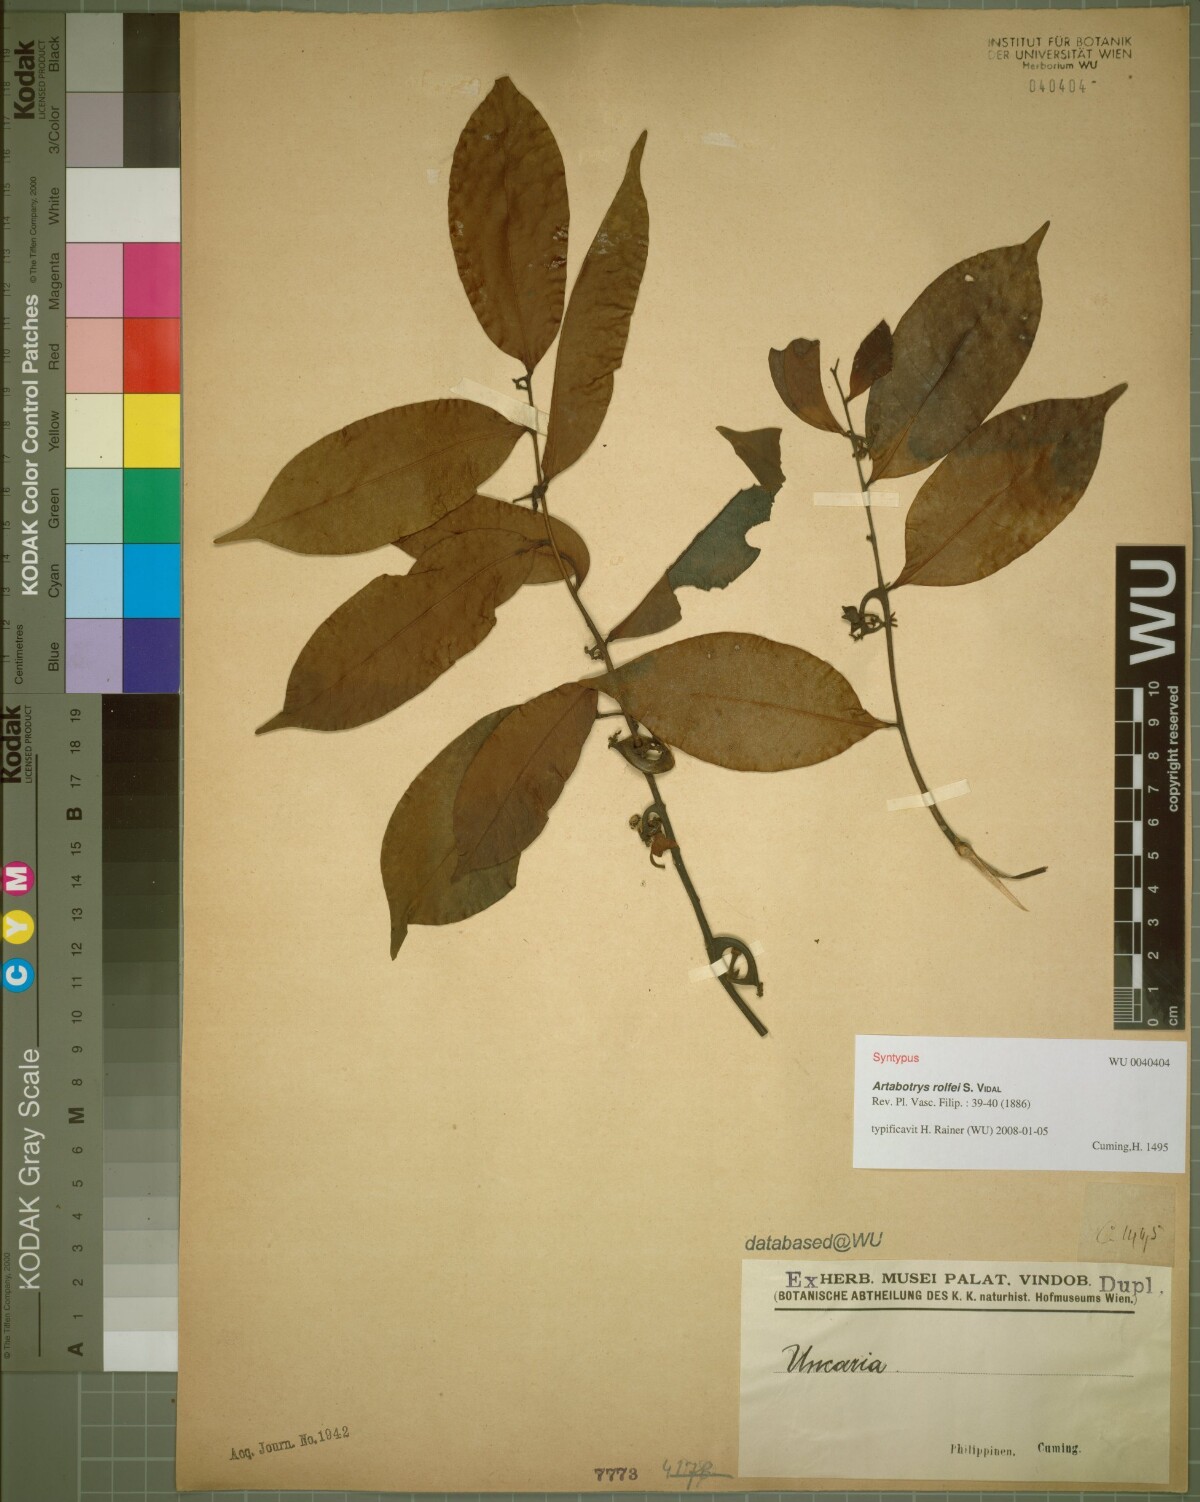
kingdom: Plantae
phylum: Tracheophyta
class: Magnoliopsida
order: Magnoliales
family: Annonaceae
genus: Artabotrys
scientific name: Artabotrys suaveolens
